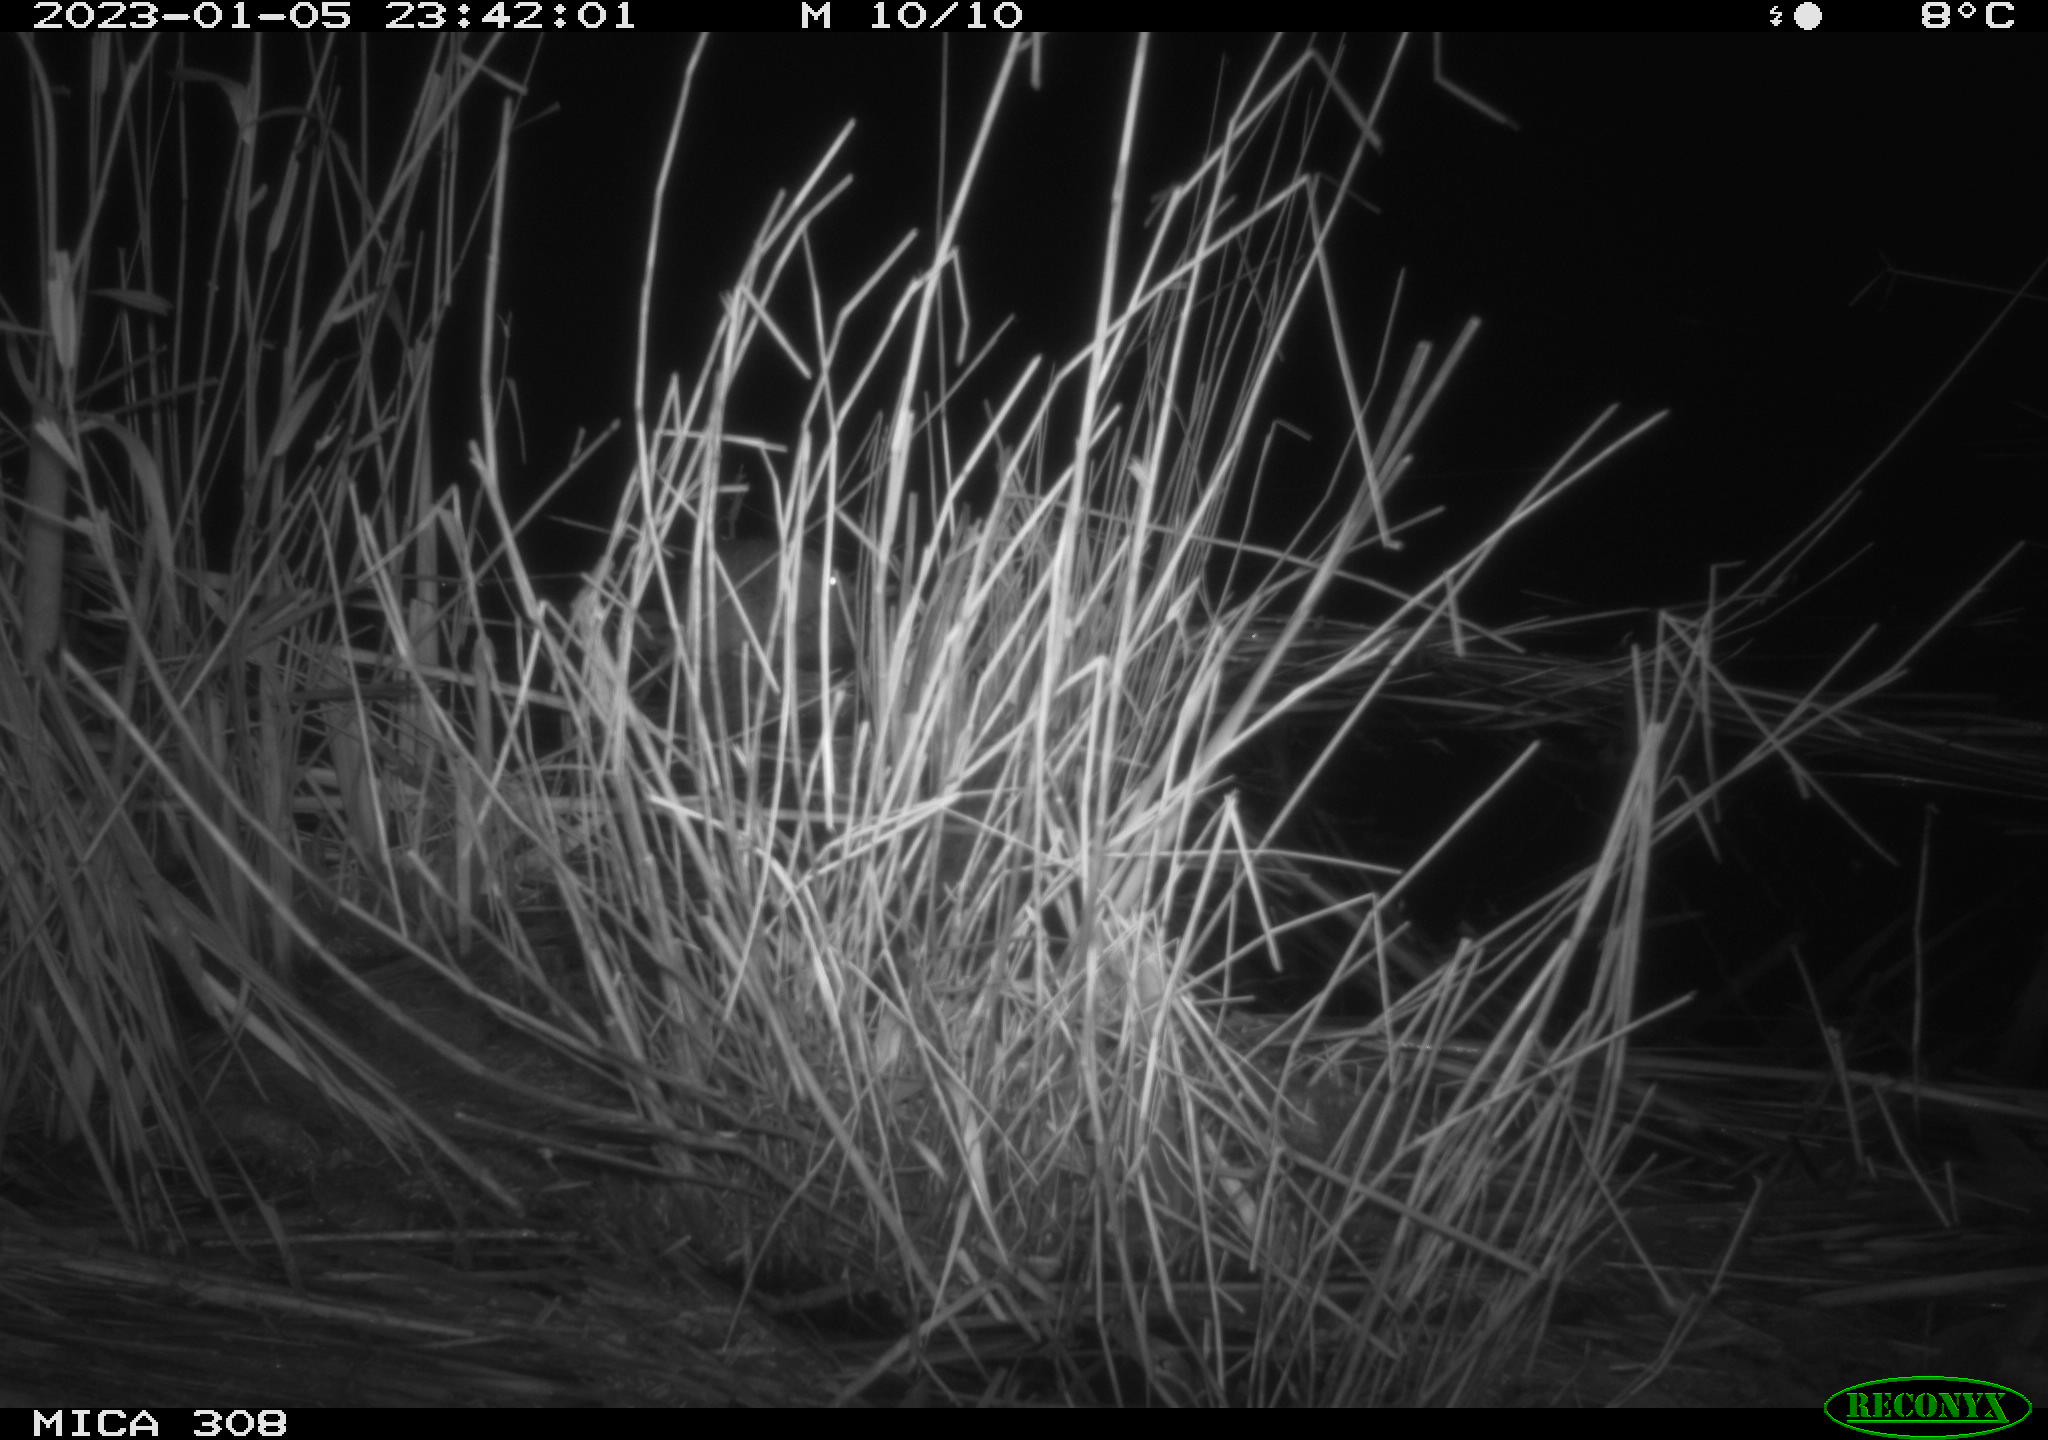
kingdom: Animalia
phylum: Chordata
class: Mammalia
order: Rodentia
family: Muridae
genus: Rattus
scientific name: Rattus norvegicus
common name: Brown rat
